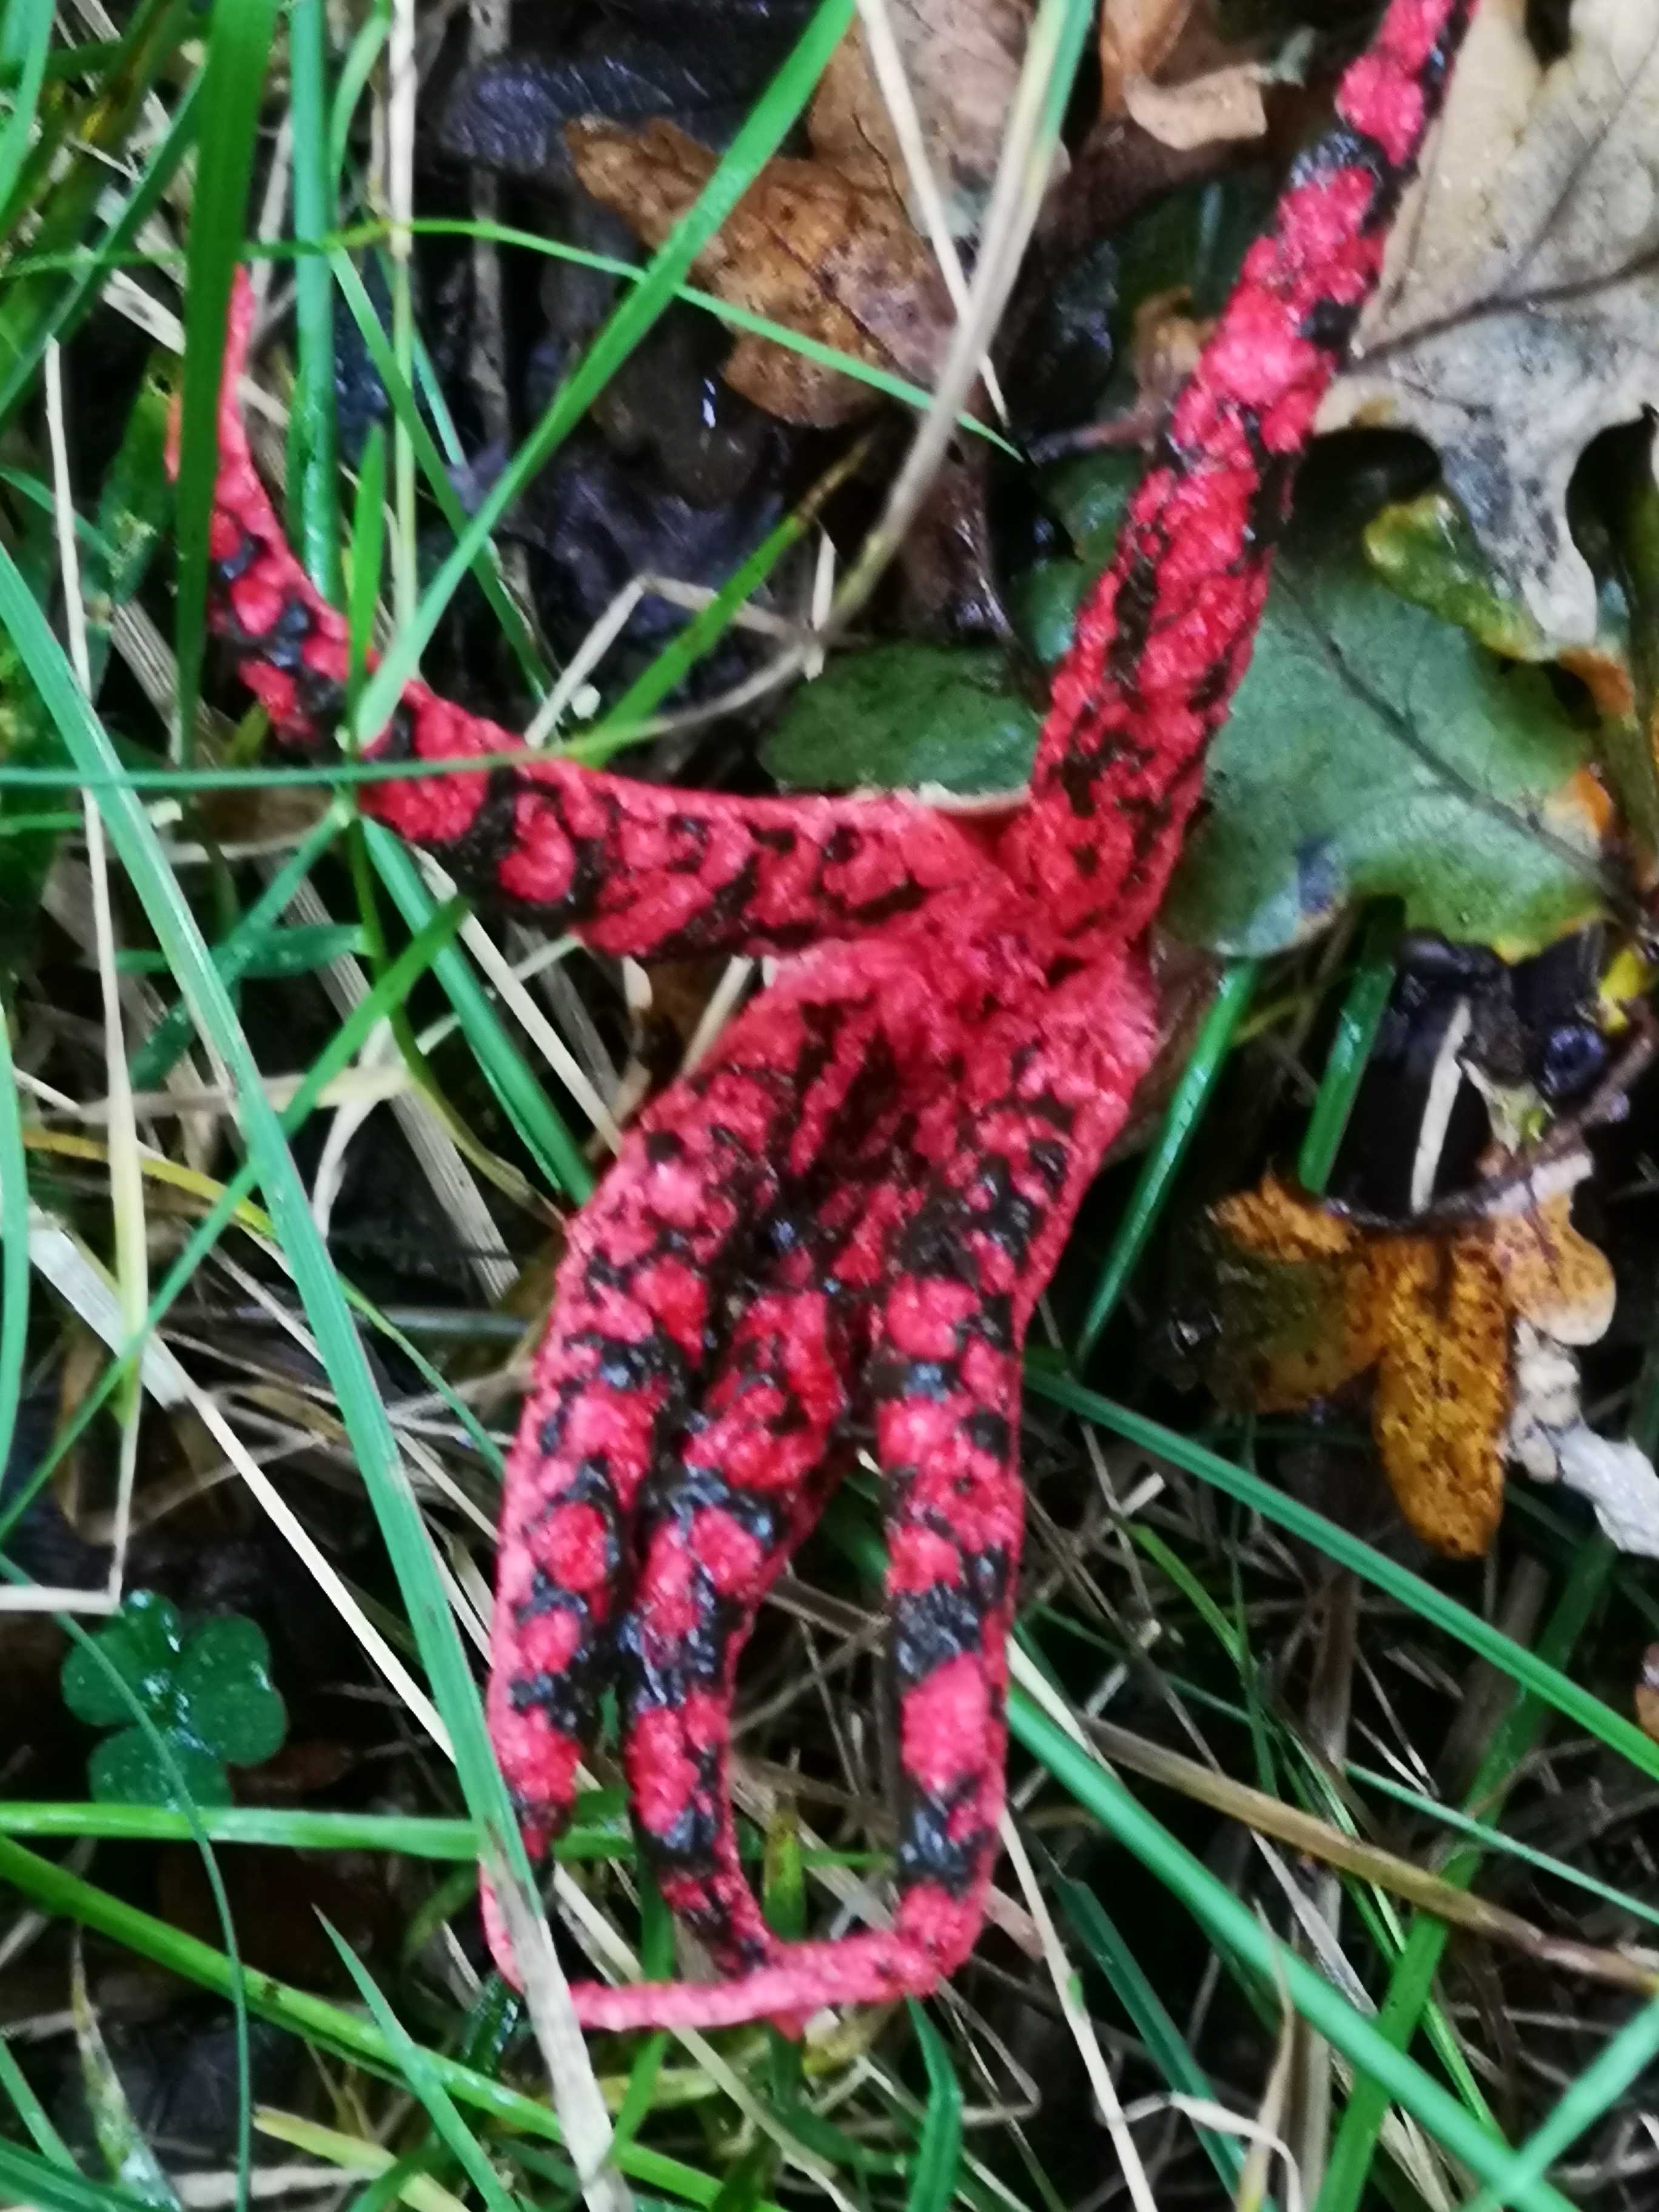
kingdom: Fungi
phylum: Basidiomycota
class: Agaricomycetes
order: Phallales
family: Phallaceae
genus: Clathrus
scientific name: Clathrus archeri
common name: blækspruttesvamp
